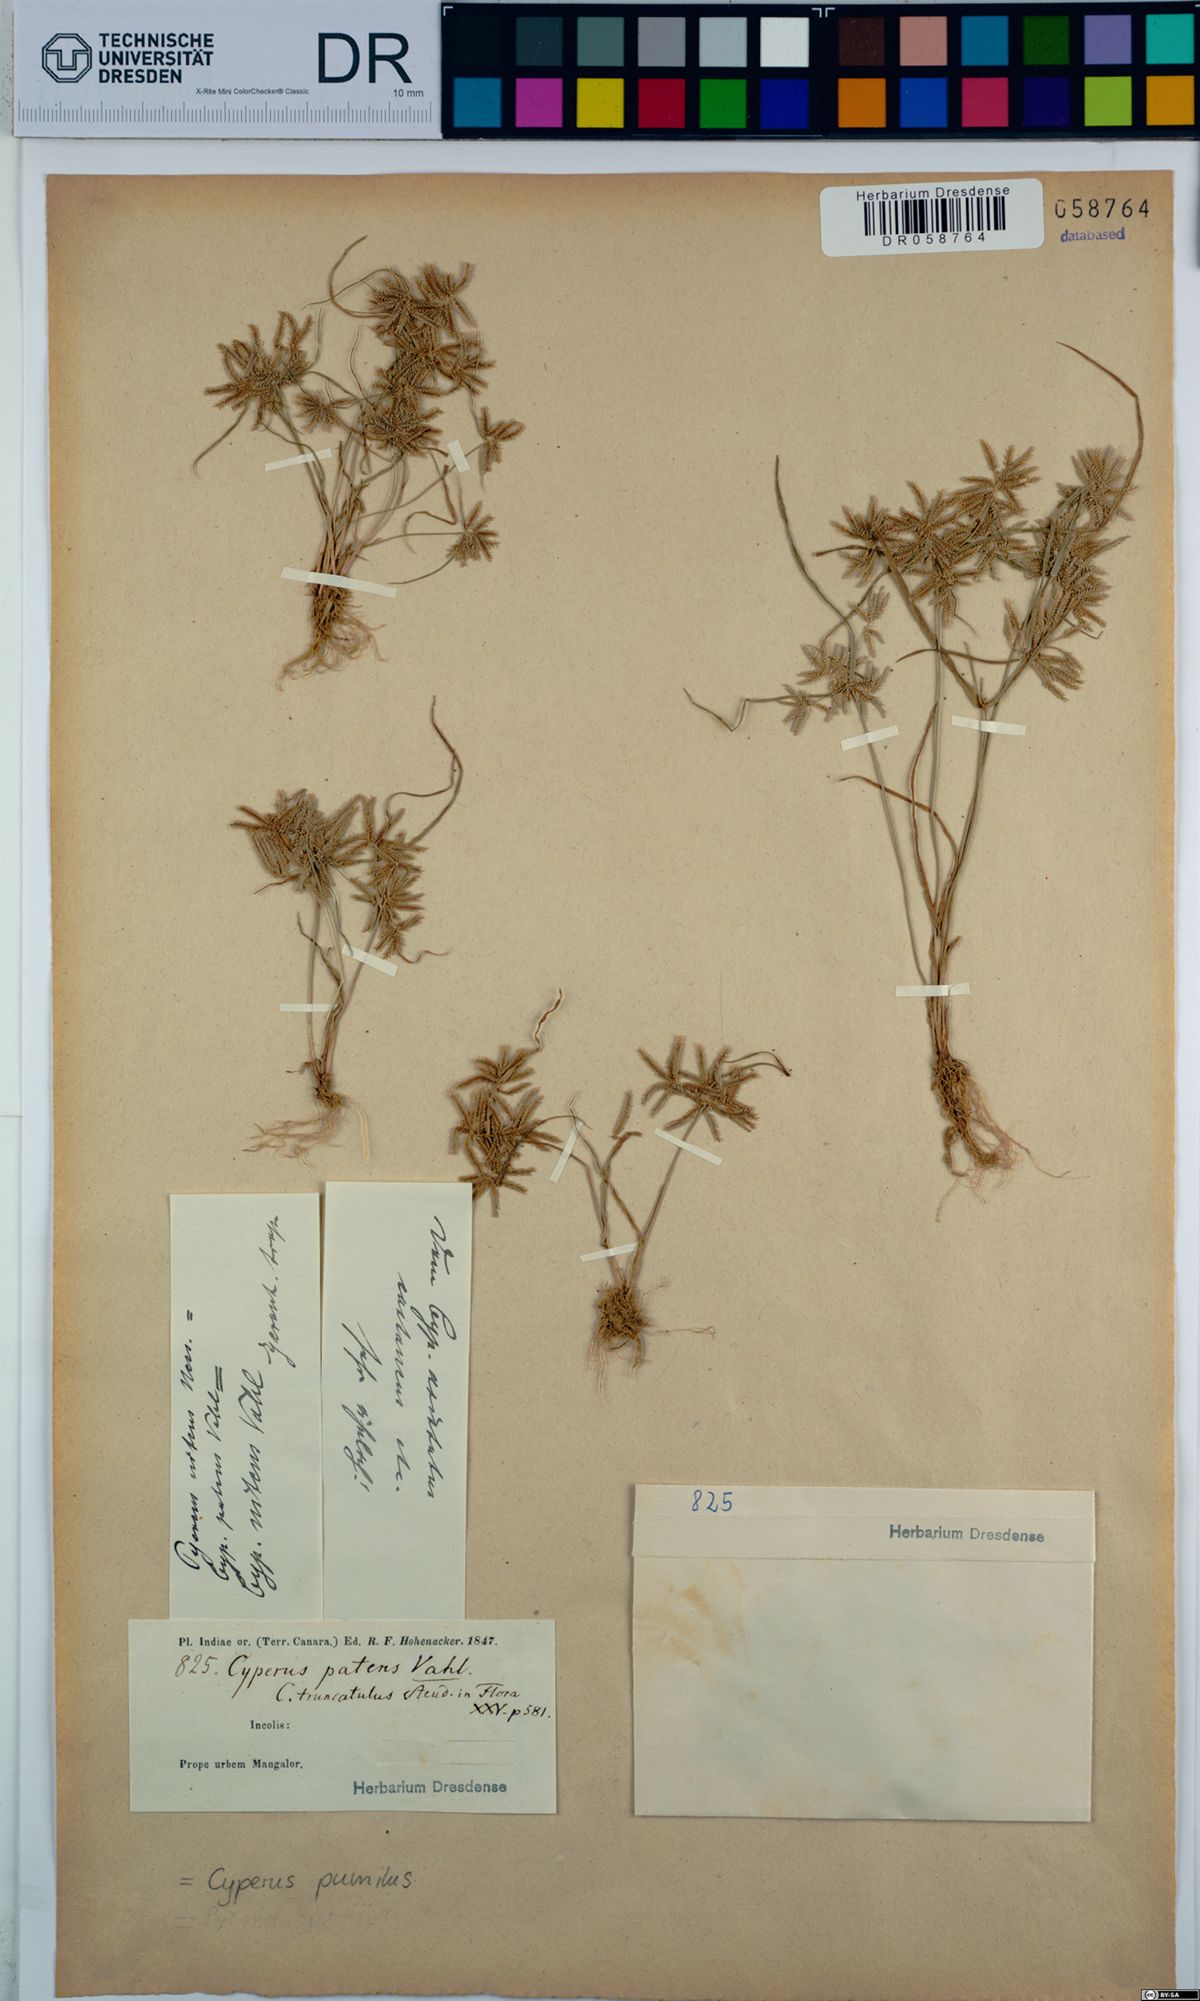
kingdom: Plantae
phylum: Tracheophyta
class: Liliopsida
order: Poales
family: Cyperaceae
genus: Cyperus
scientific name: Cyperus pumilus
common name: Low flatsedge
